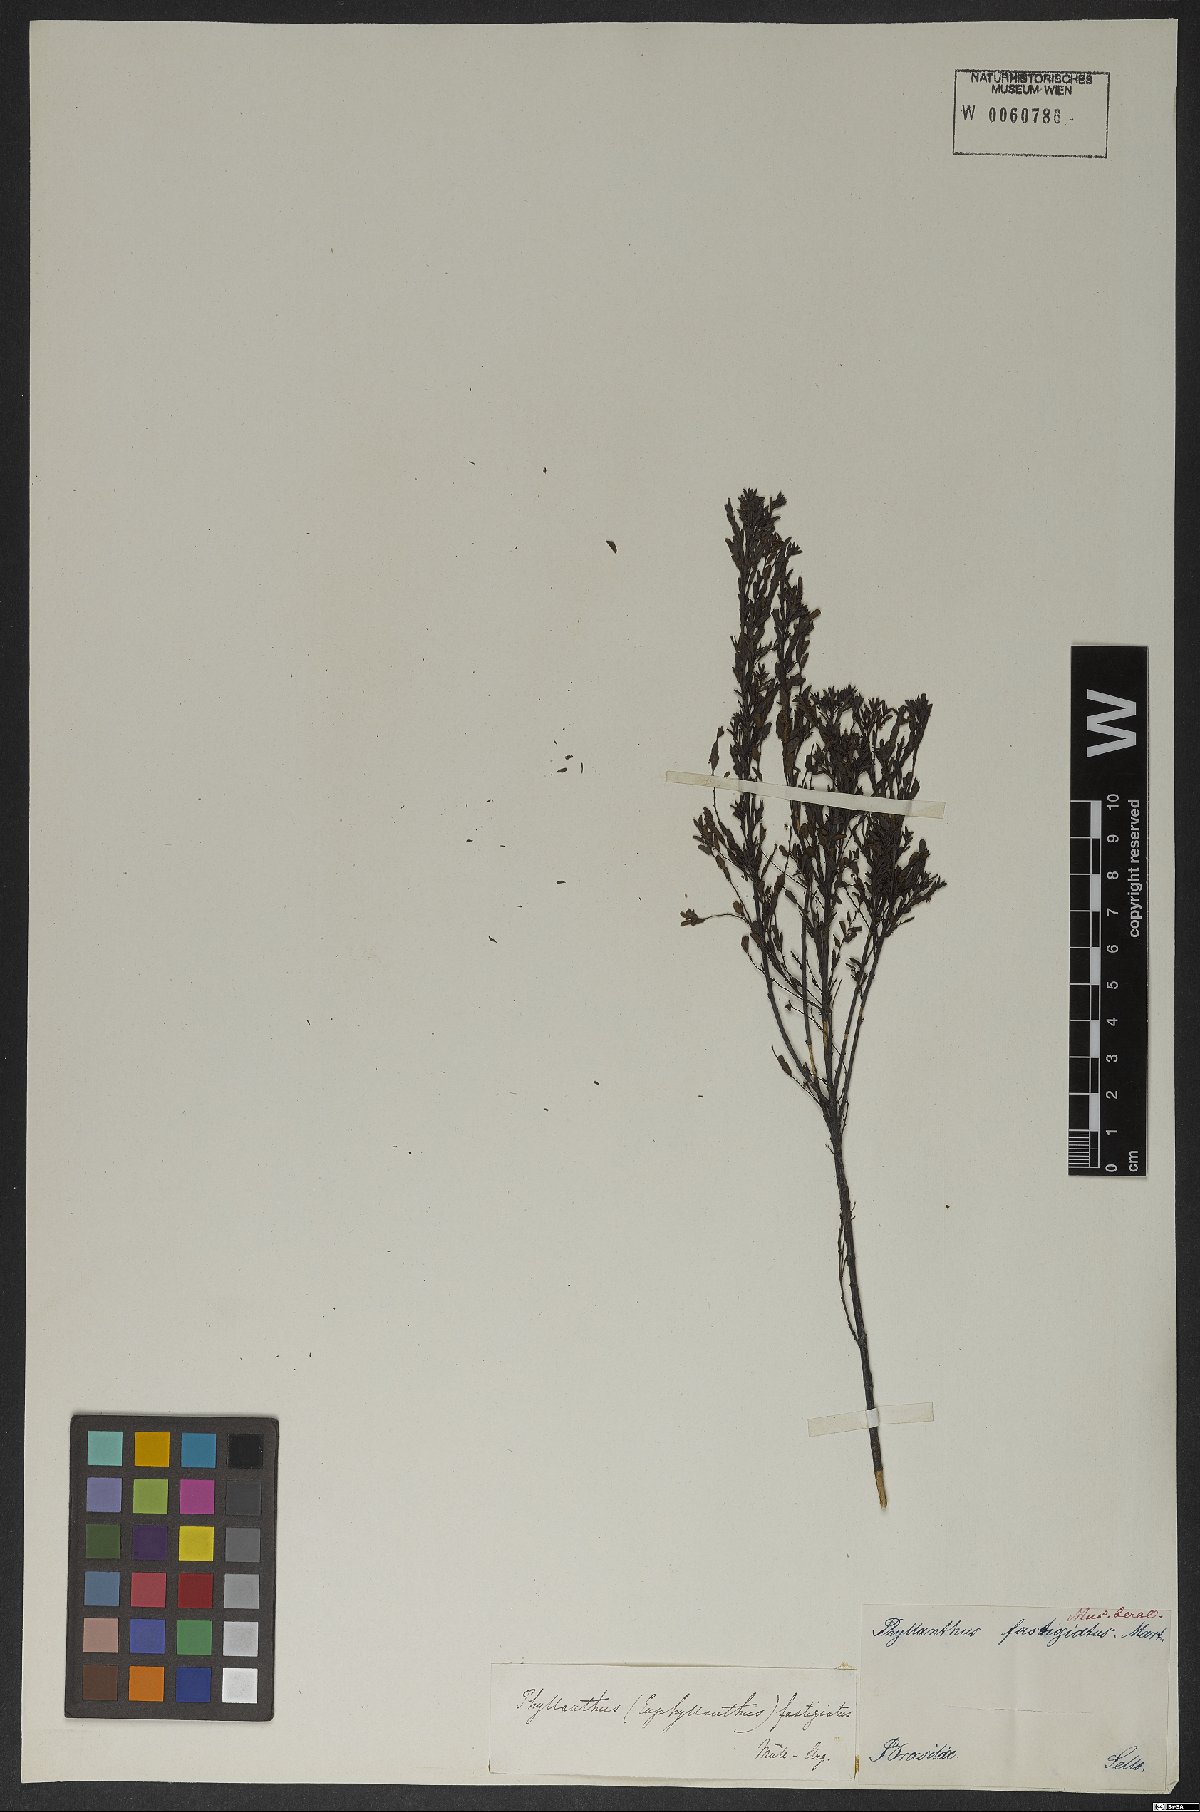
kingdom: Plantae
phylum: Tracheophyta
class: Magnoliopsida
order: Malpighiales
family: Phyllanthaceae
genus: Phyllanthus
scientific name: Phyllanthus fastigiatus
